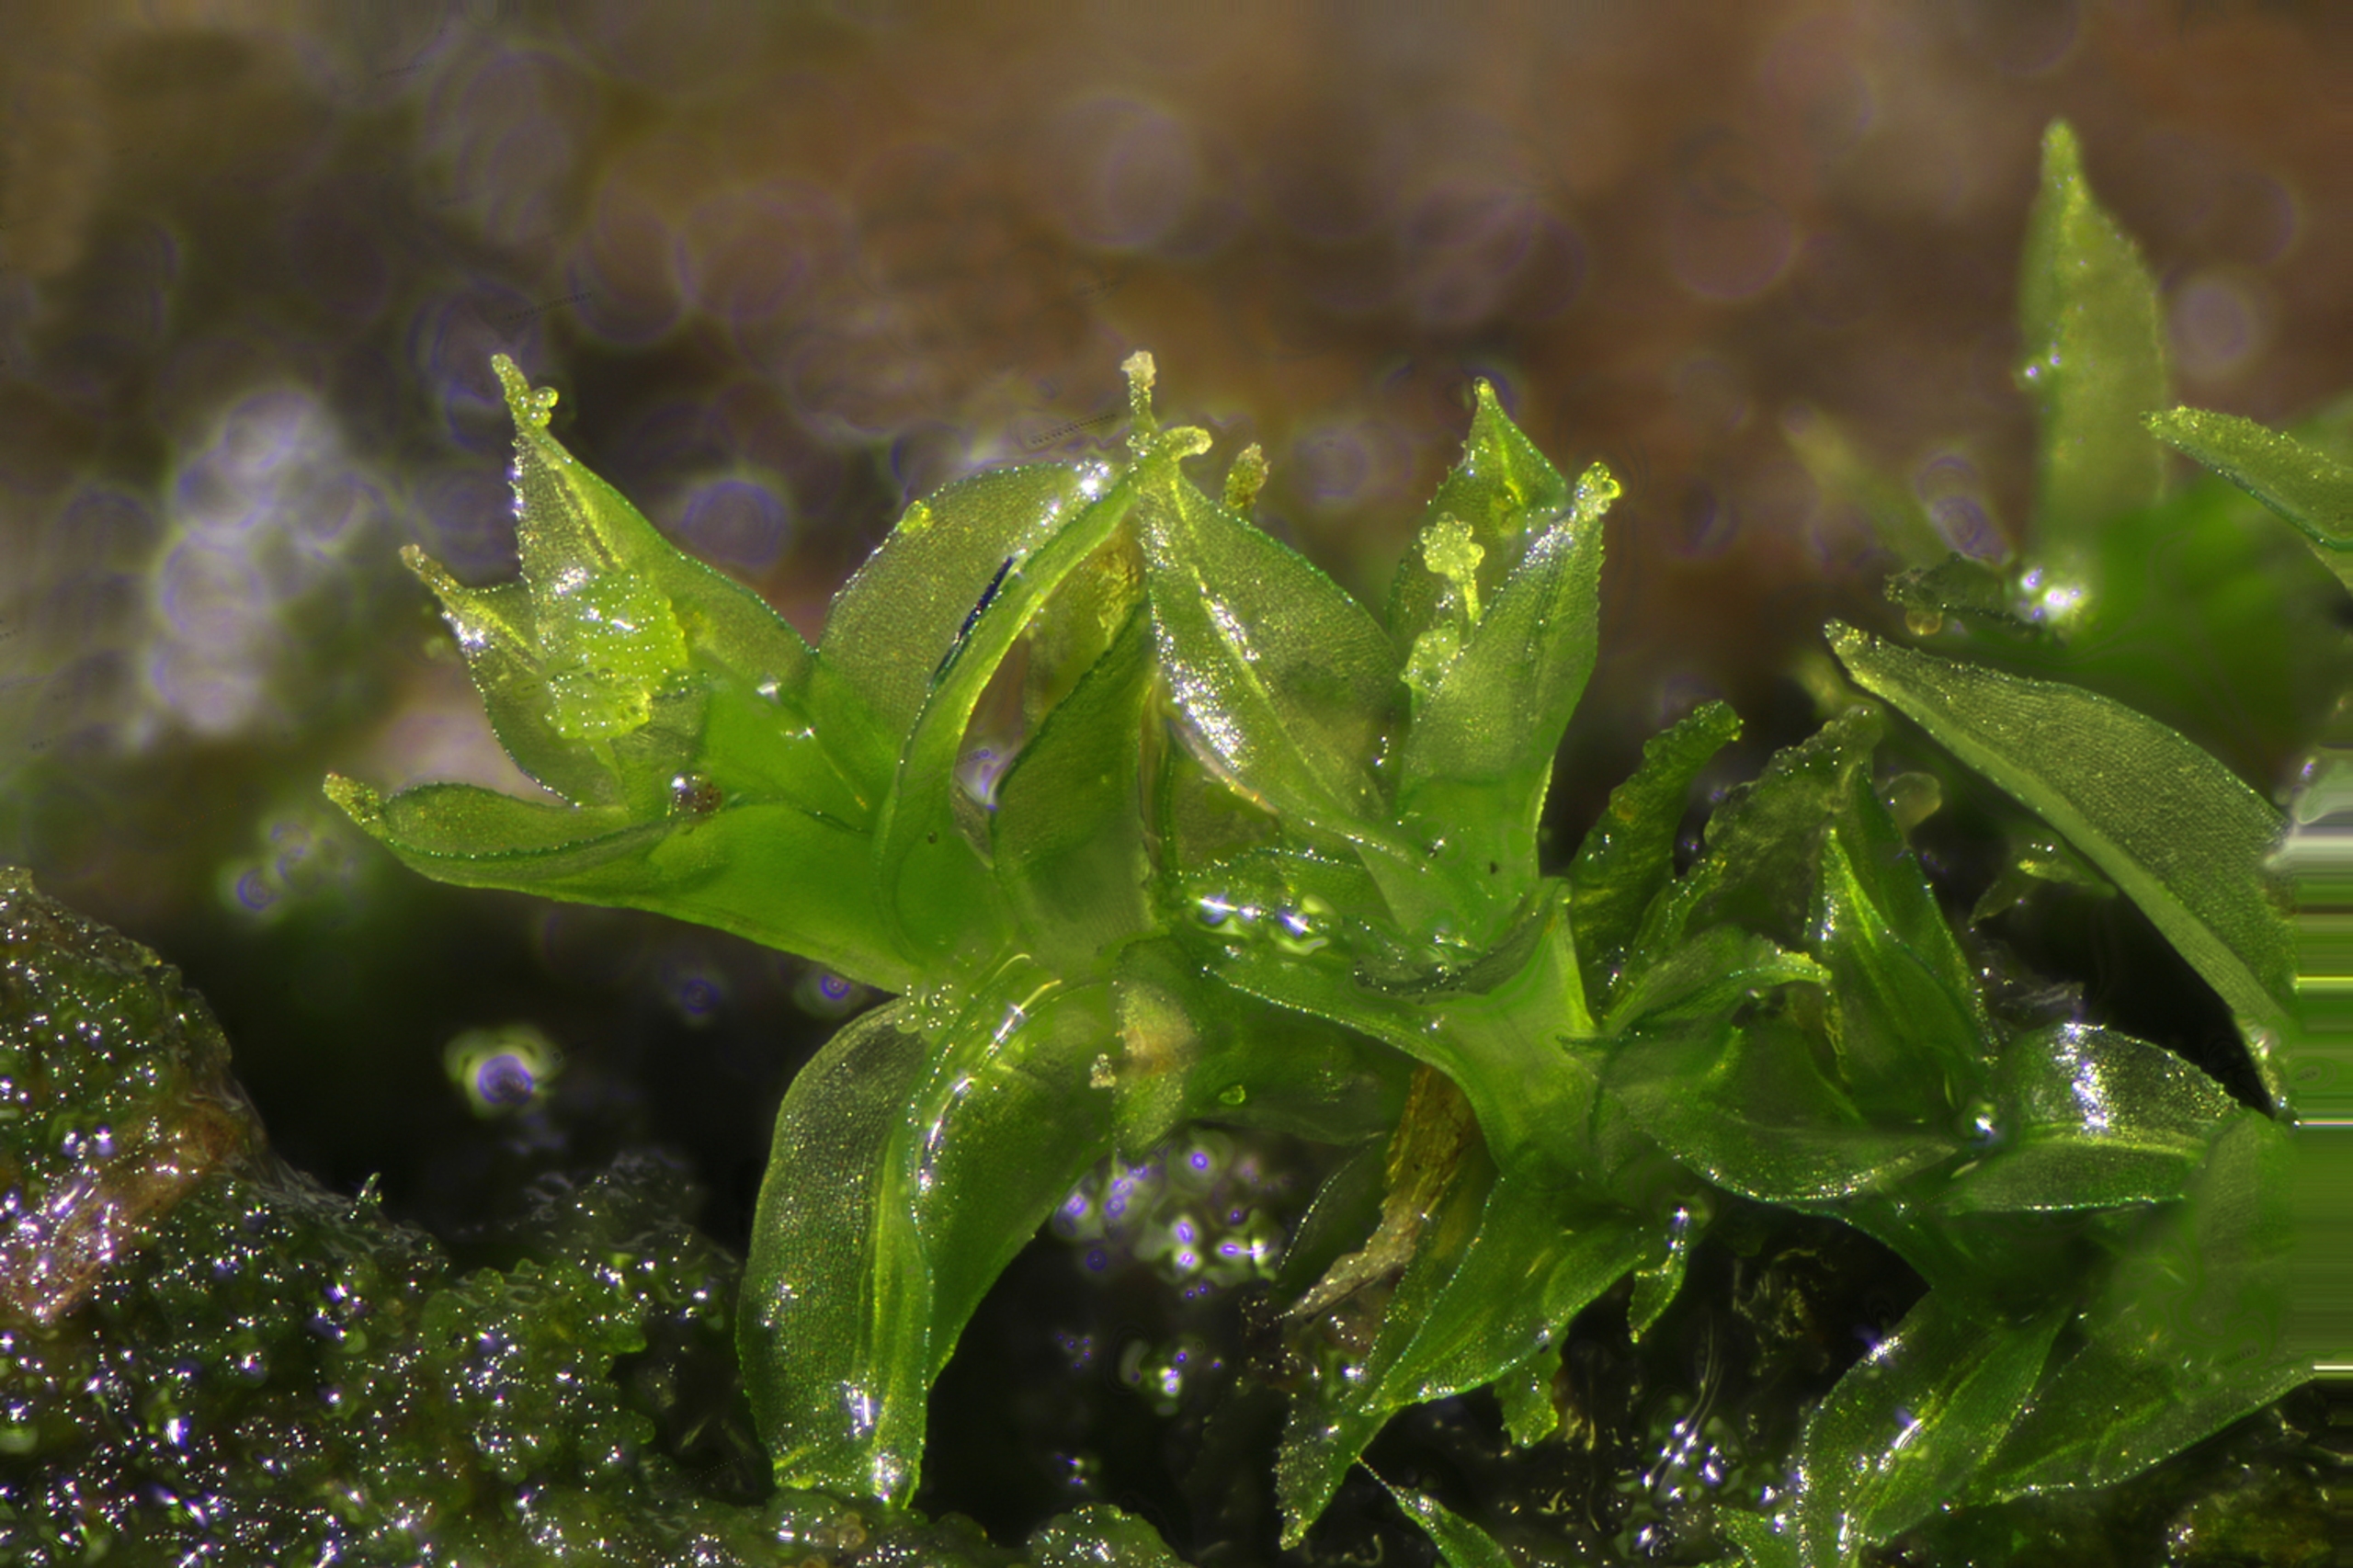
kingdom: Plantae
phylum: Bryophyta
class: Bryopsida
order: Pottiales
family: Pottiaceae
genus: Leptodontium
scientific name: Leptodontium gemmascens
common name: Brod-smaltand
